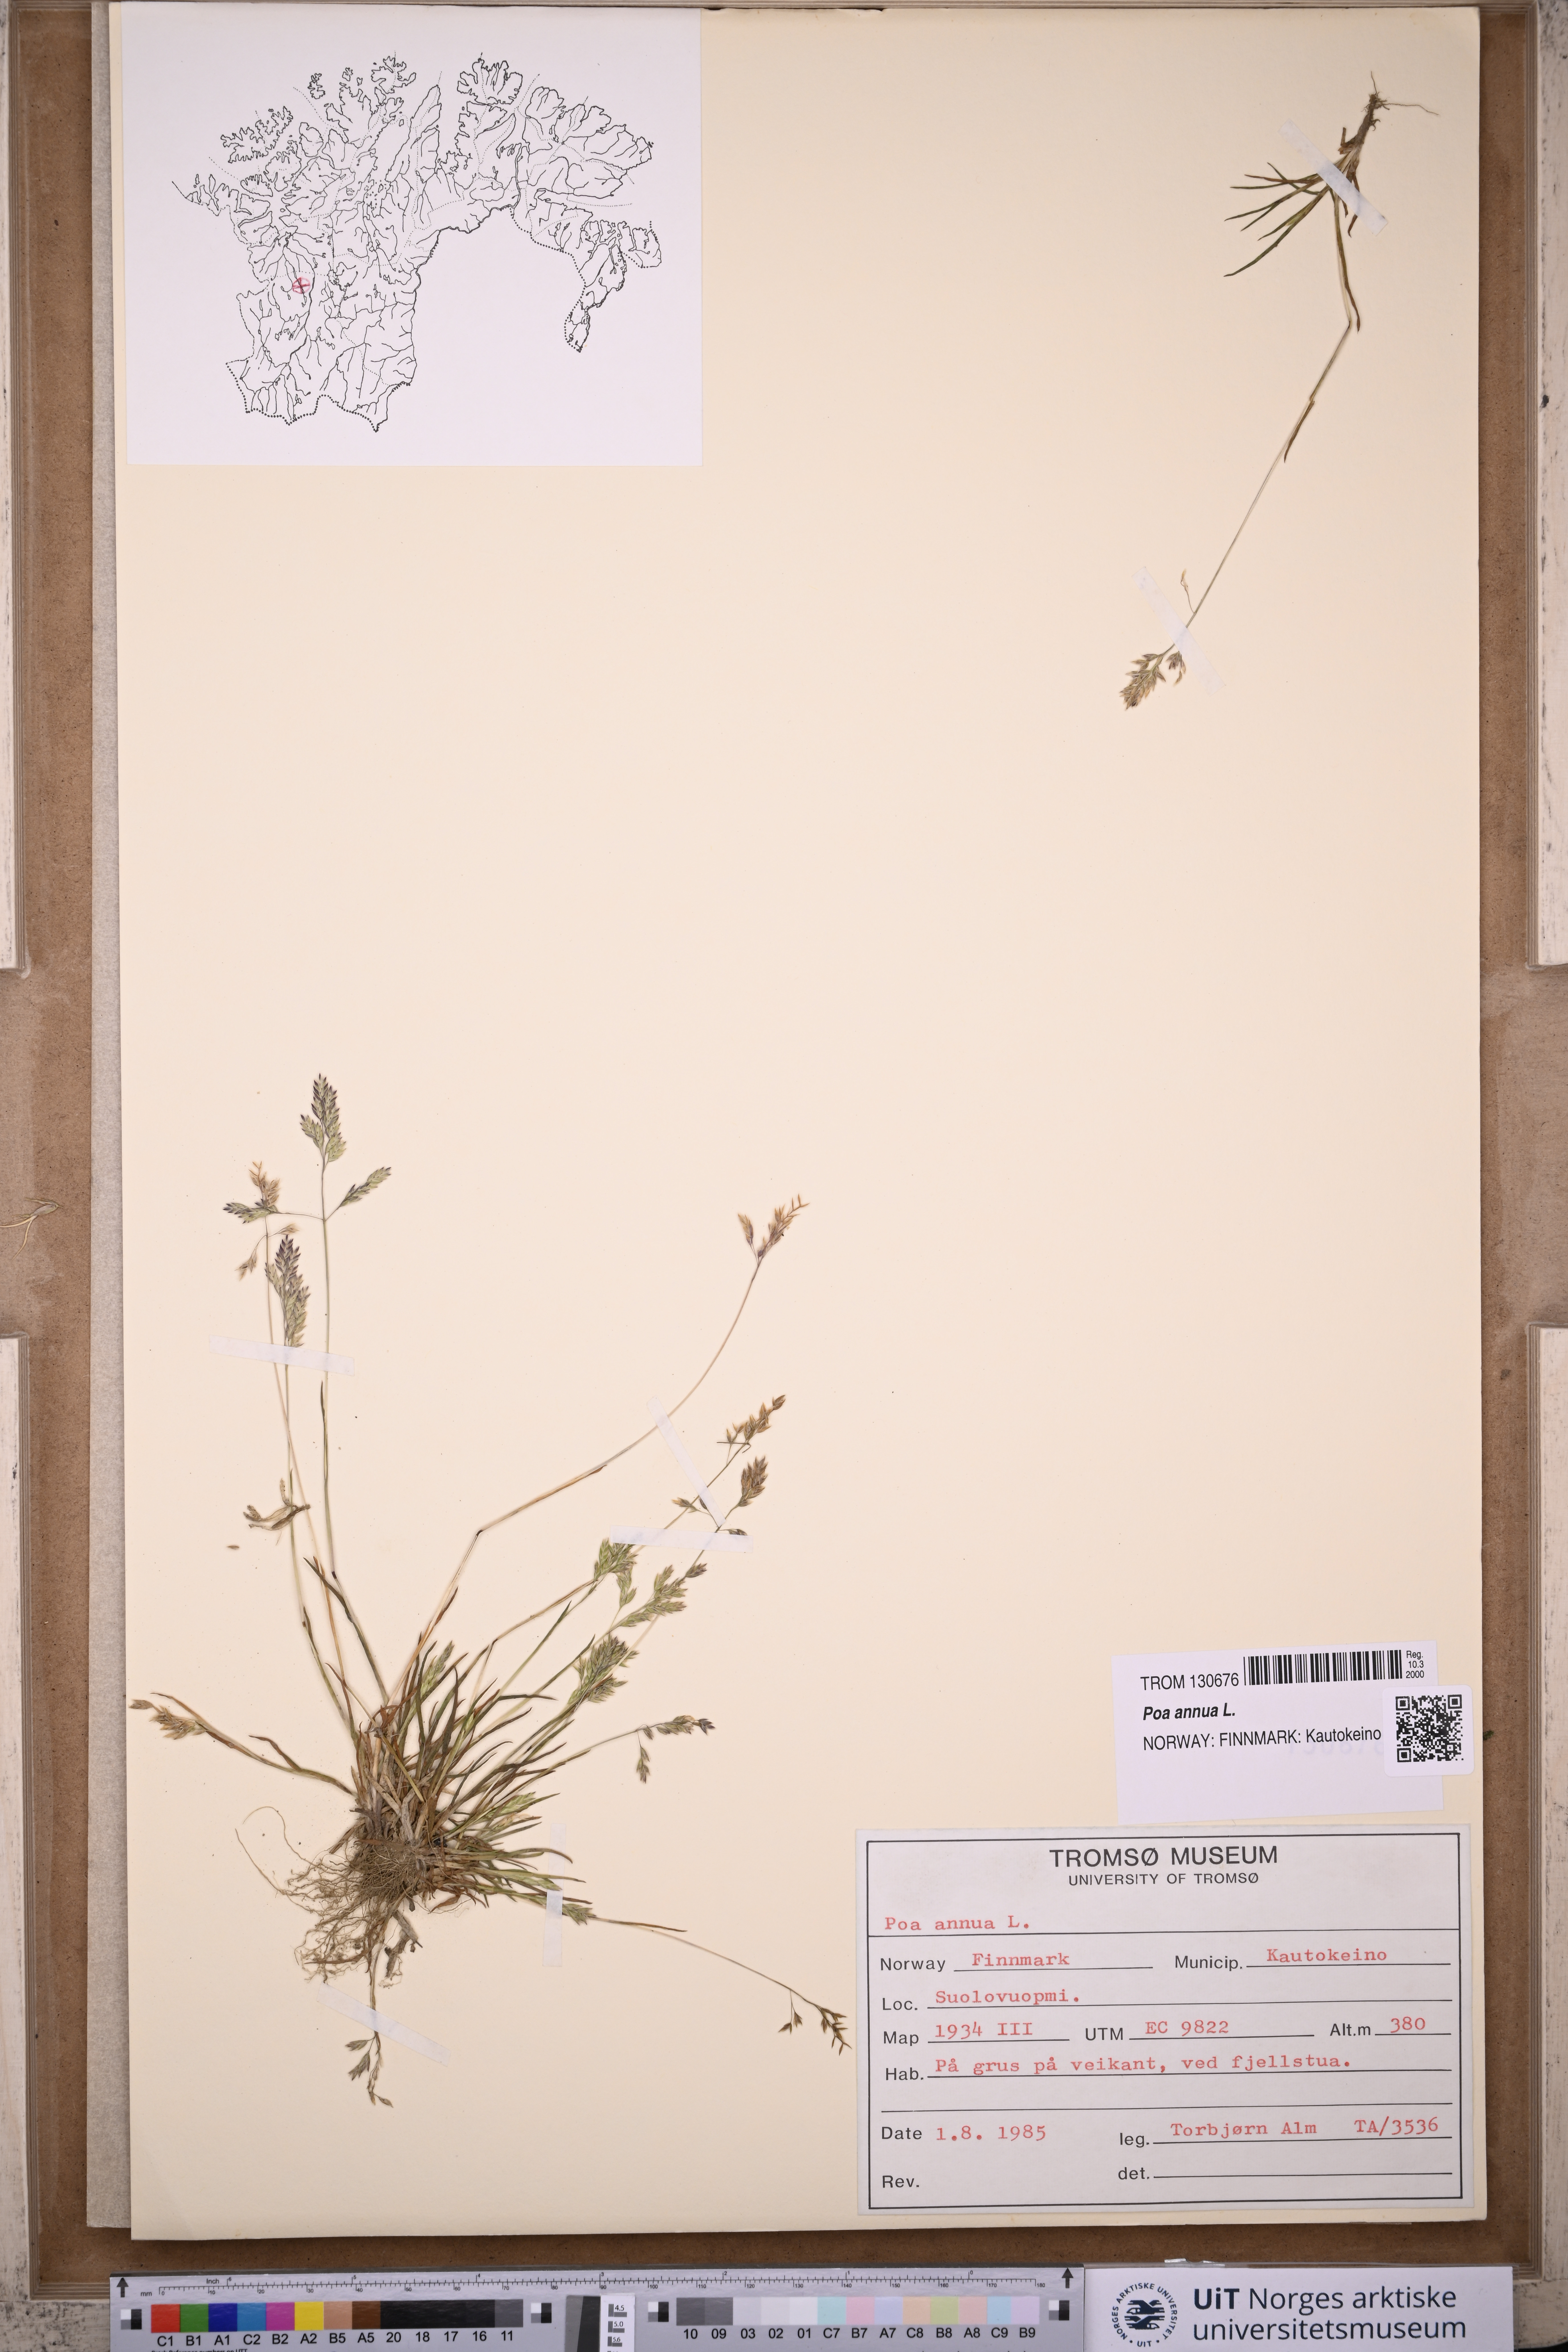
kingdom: Plantae
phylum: Tracheophyta
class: Liliopsida
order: Poales
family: Poaceae
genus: Poa
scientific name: Poa annua
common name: Annual bluegrass
